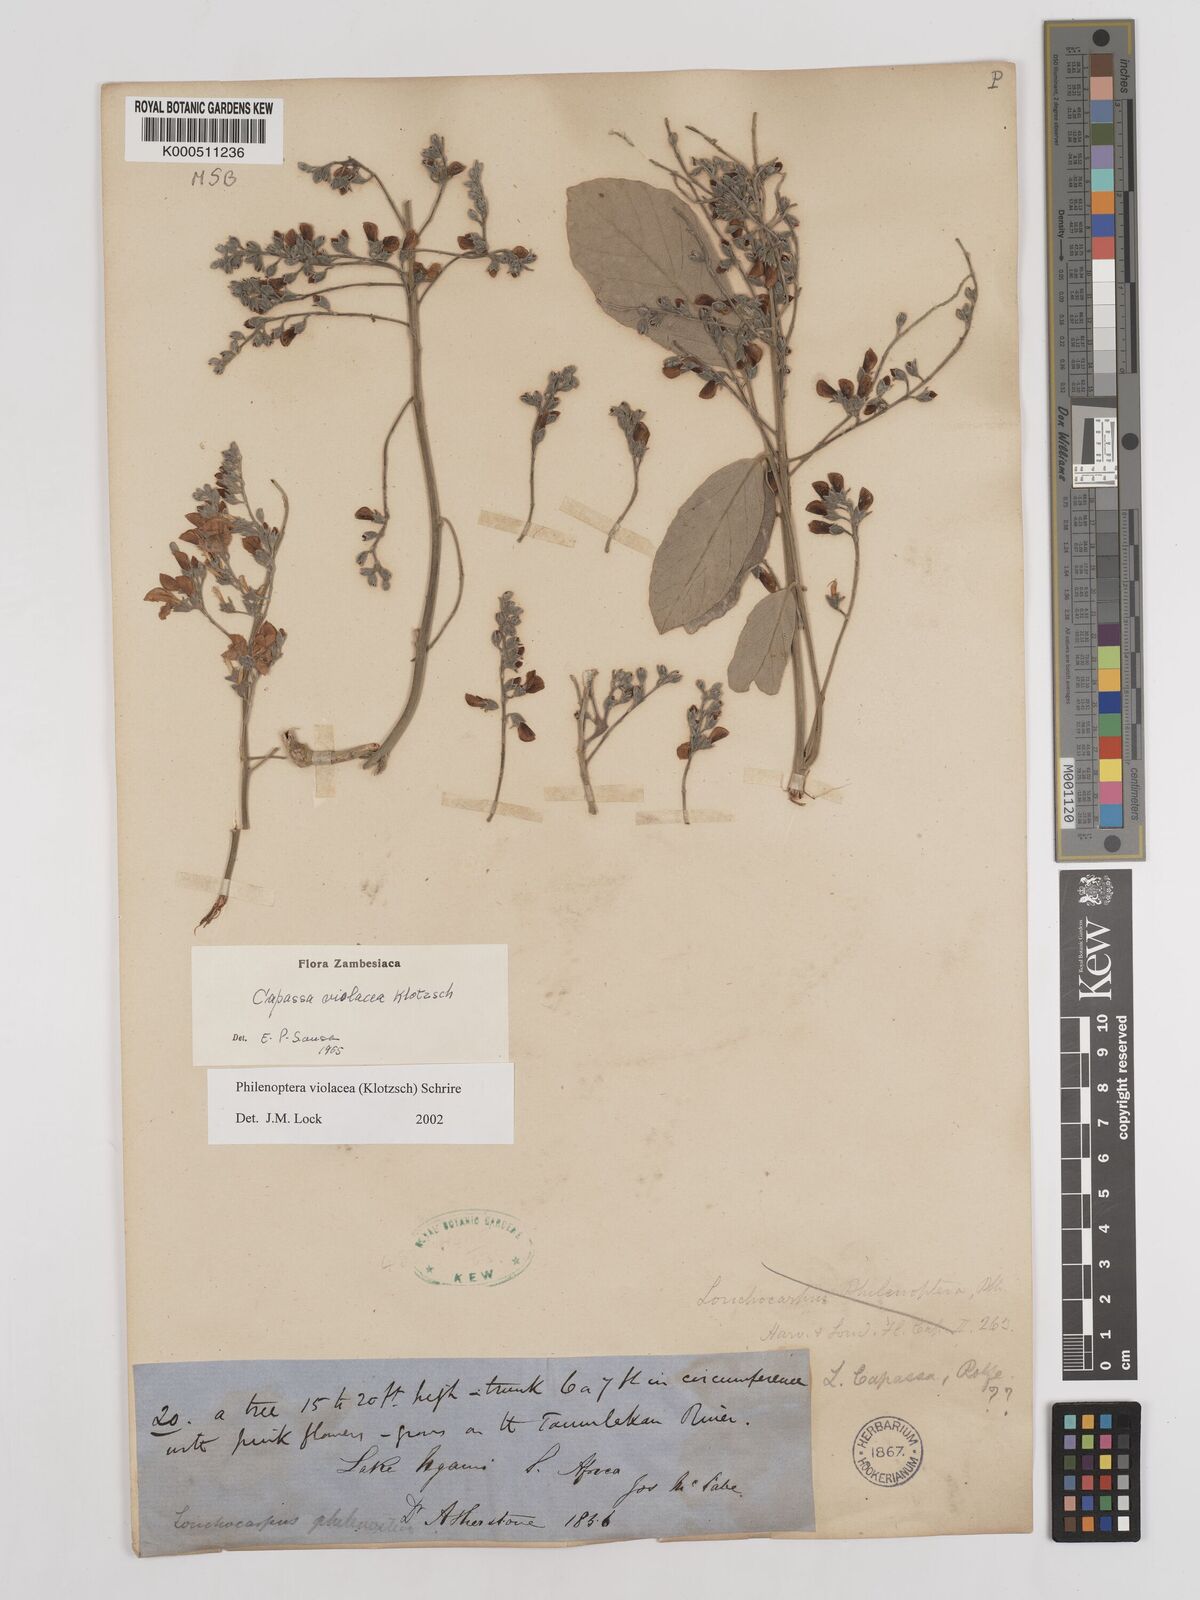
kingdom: Plantae
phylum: Tracheophyta
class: Magnoliopsida
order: Fabales
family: Fabaceae
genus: Philenoptera
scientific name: Philenoptera violacea
